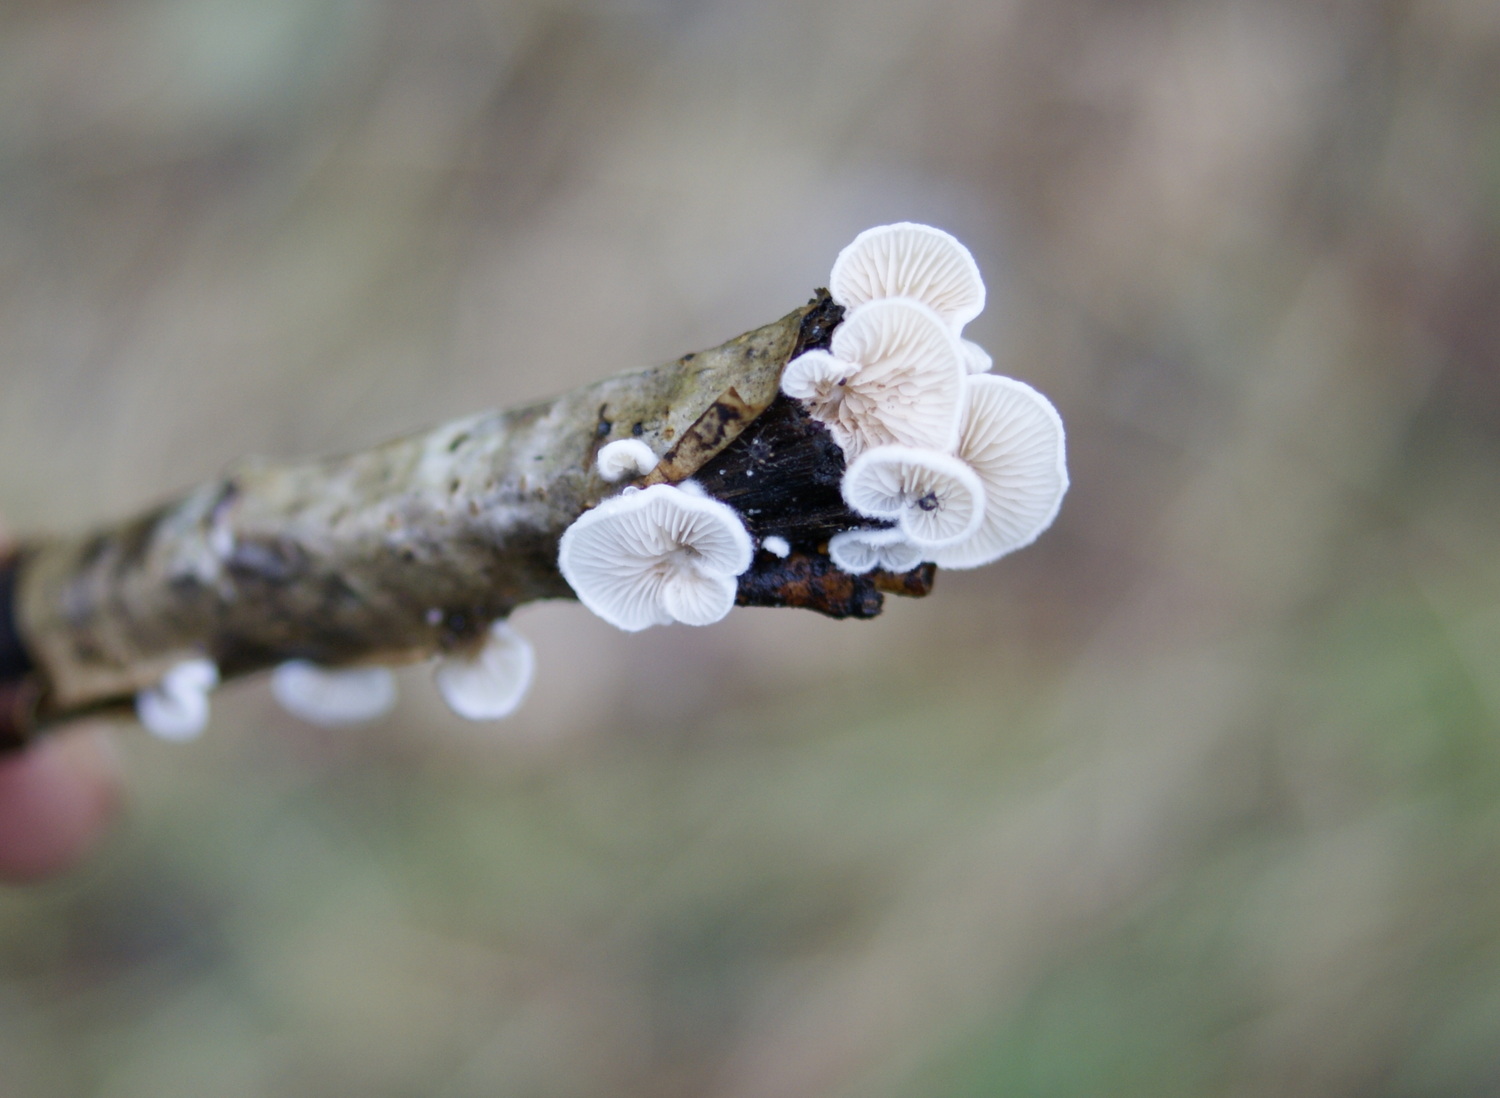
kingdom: Fungi
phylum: Basidiomycota
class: Agaricomycetes
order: Agaricales
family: Crepidotaceae
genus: Crepidotus
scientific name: Crepidotus variabilis
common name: forskelligformet muslingesvamp
